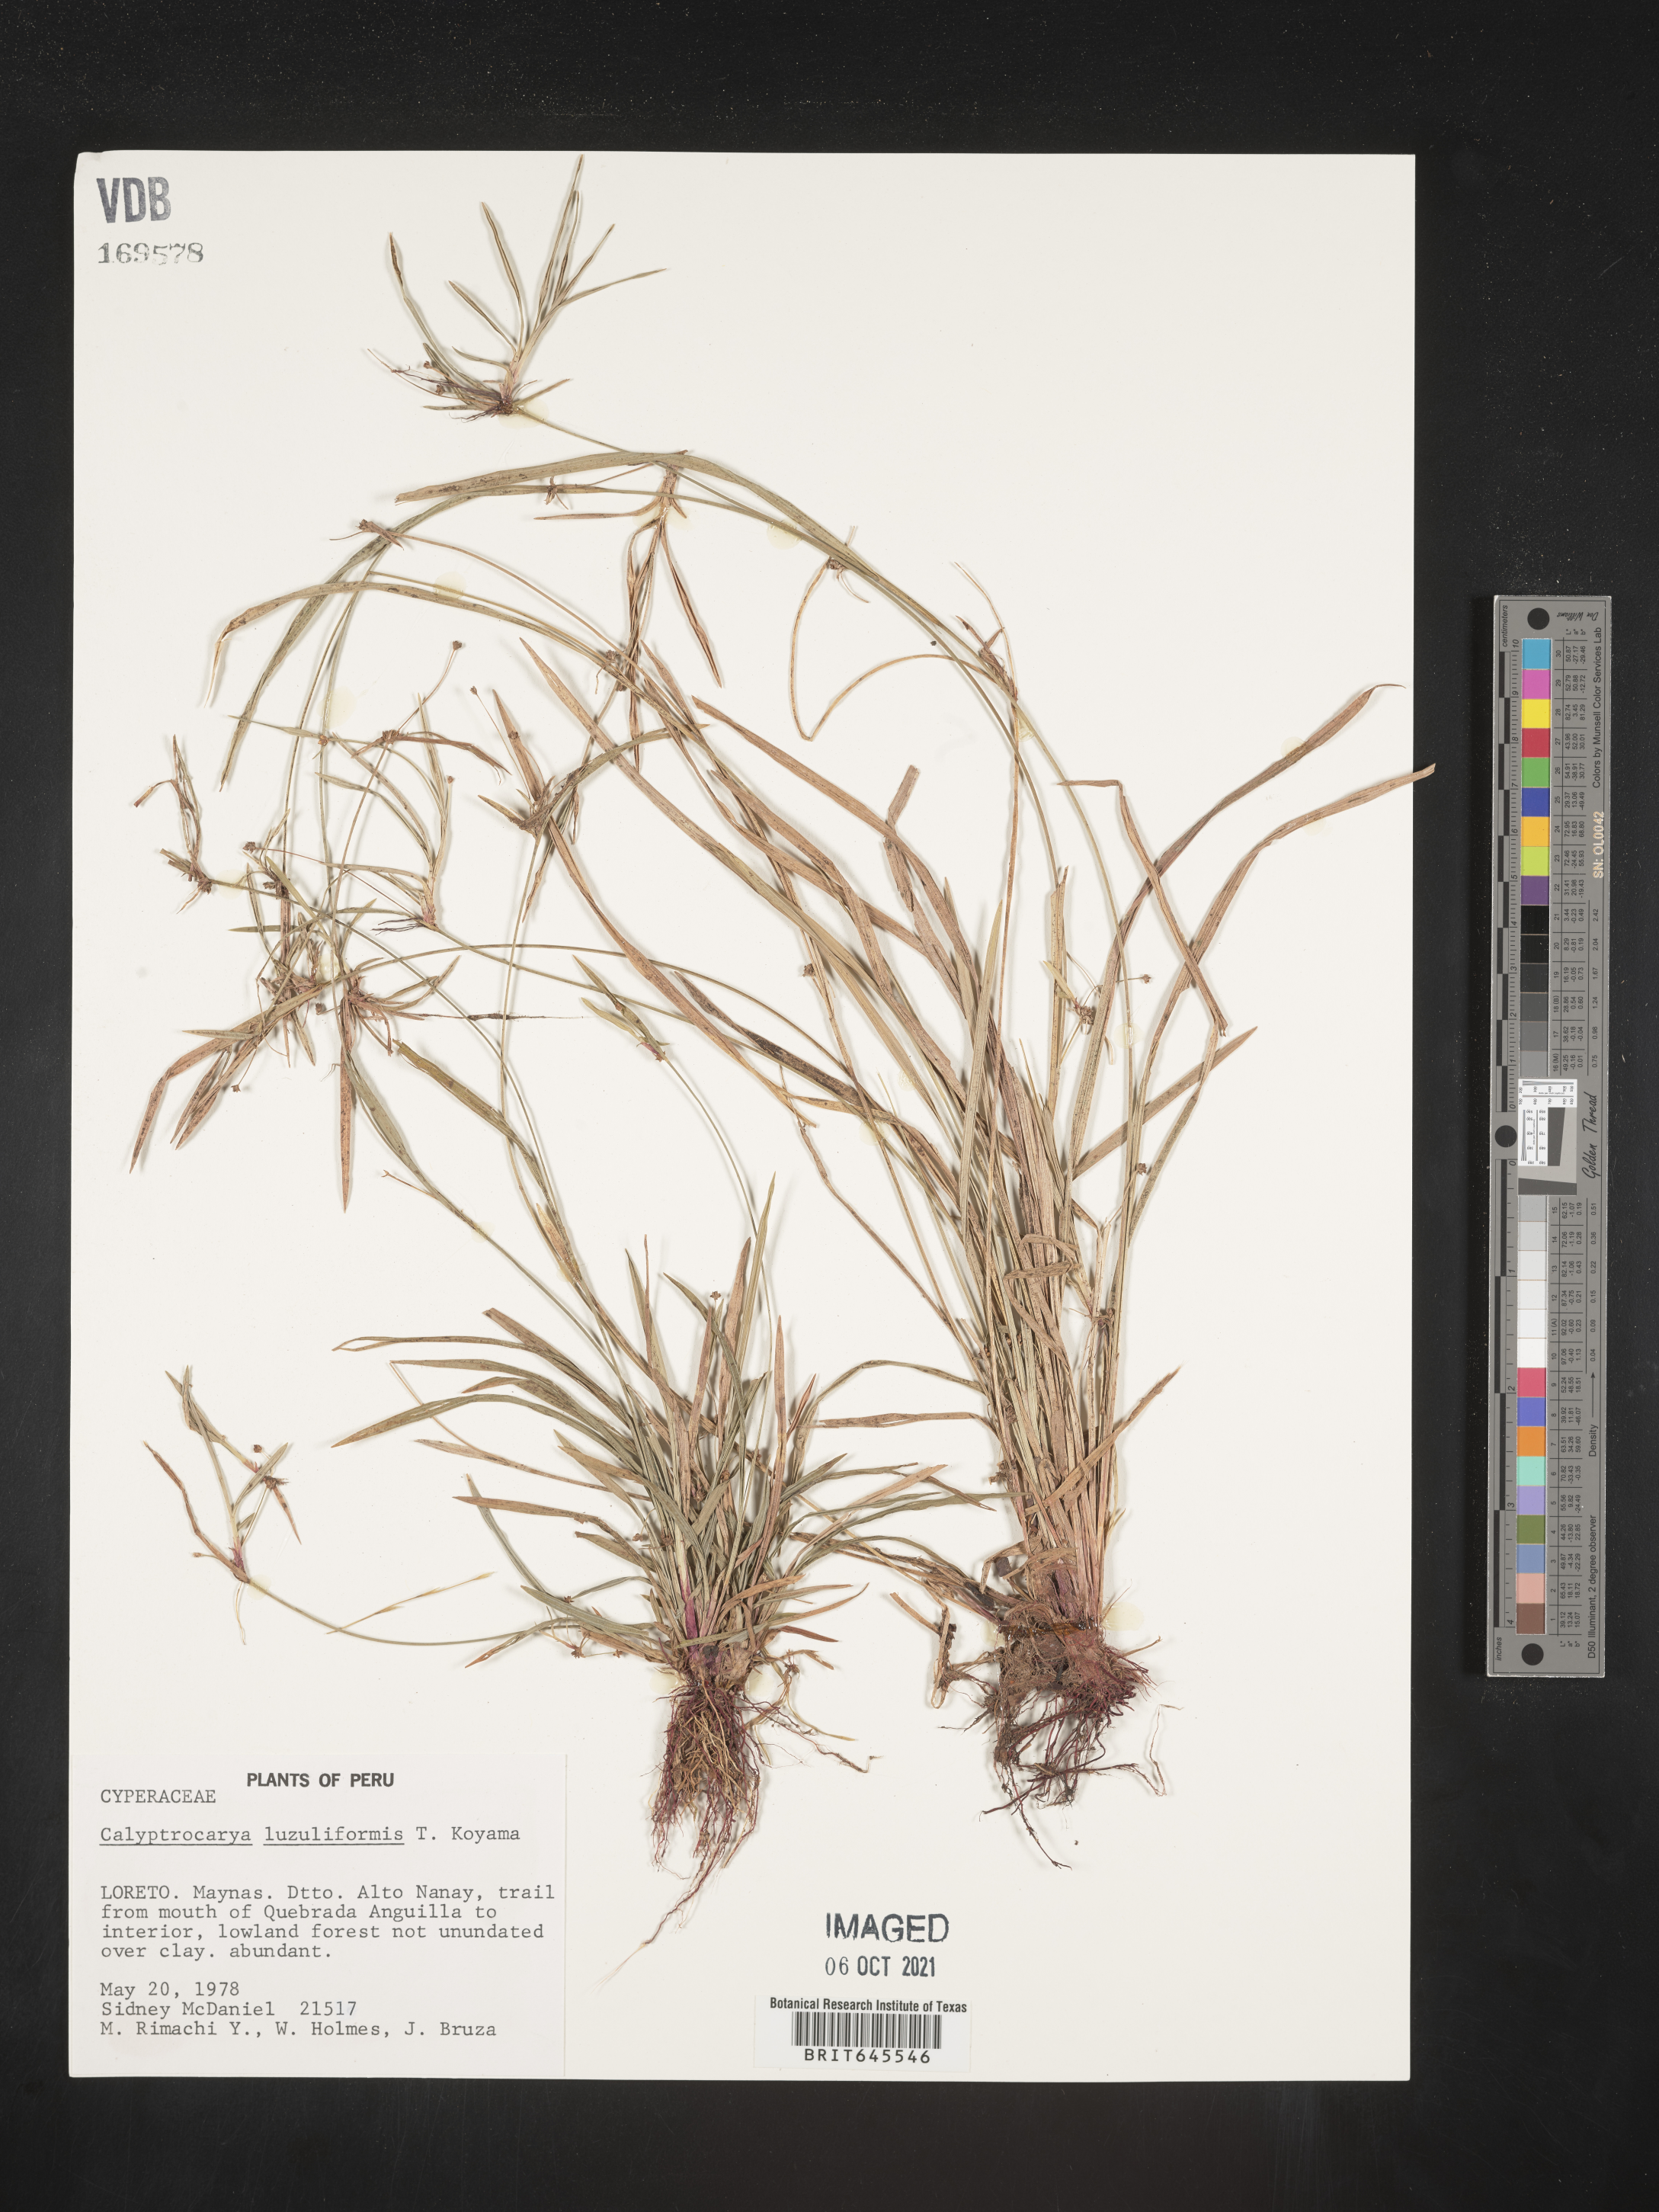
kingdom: Plantae
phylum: Tracheophyta
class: Liliopsida
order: Poales
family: Cyperaceae
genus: Calyptrocarya
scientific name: Calyptrocarya luzuliformis
